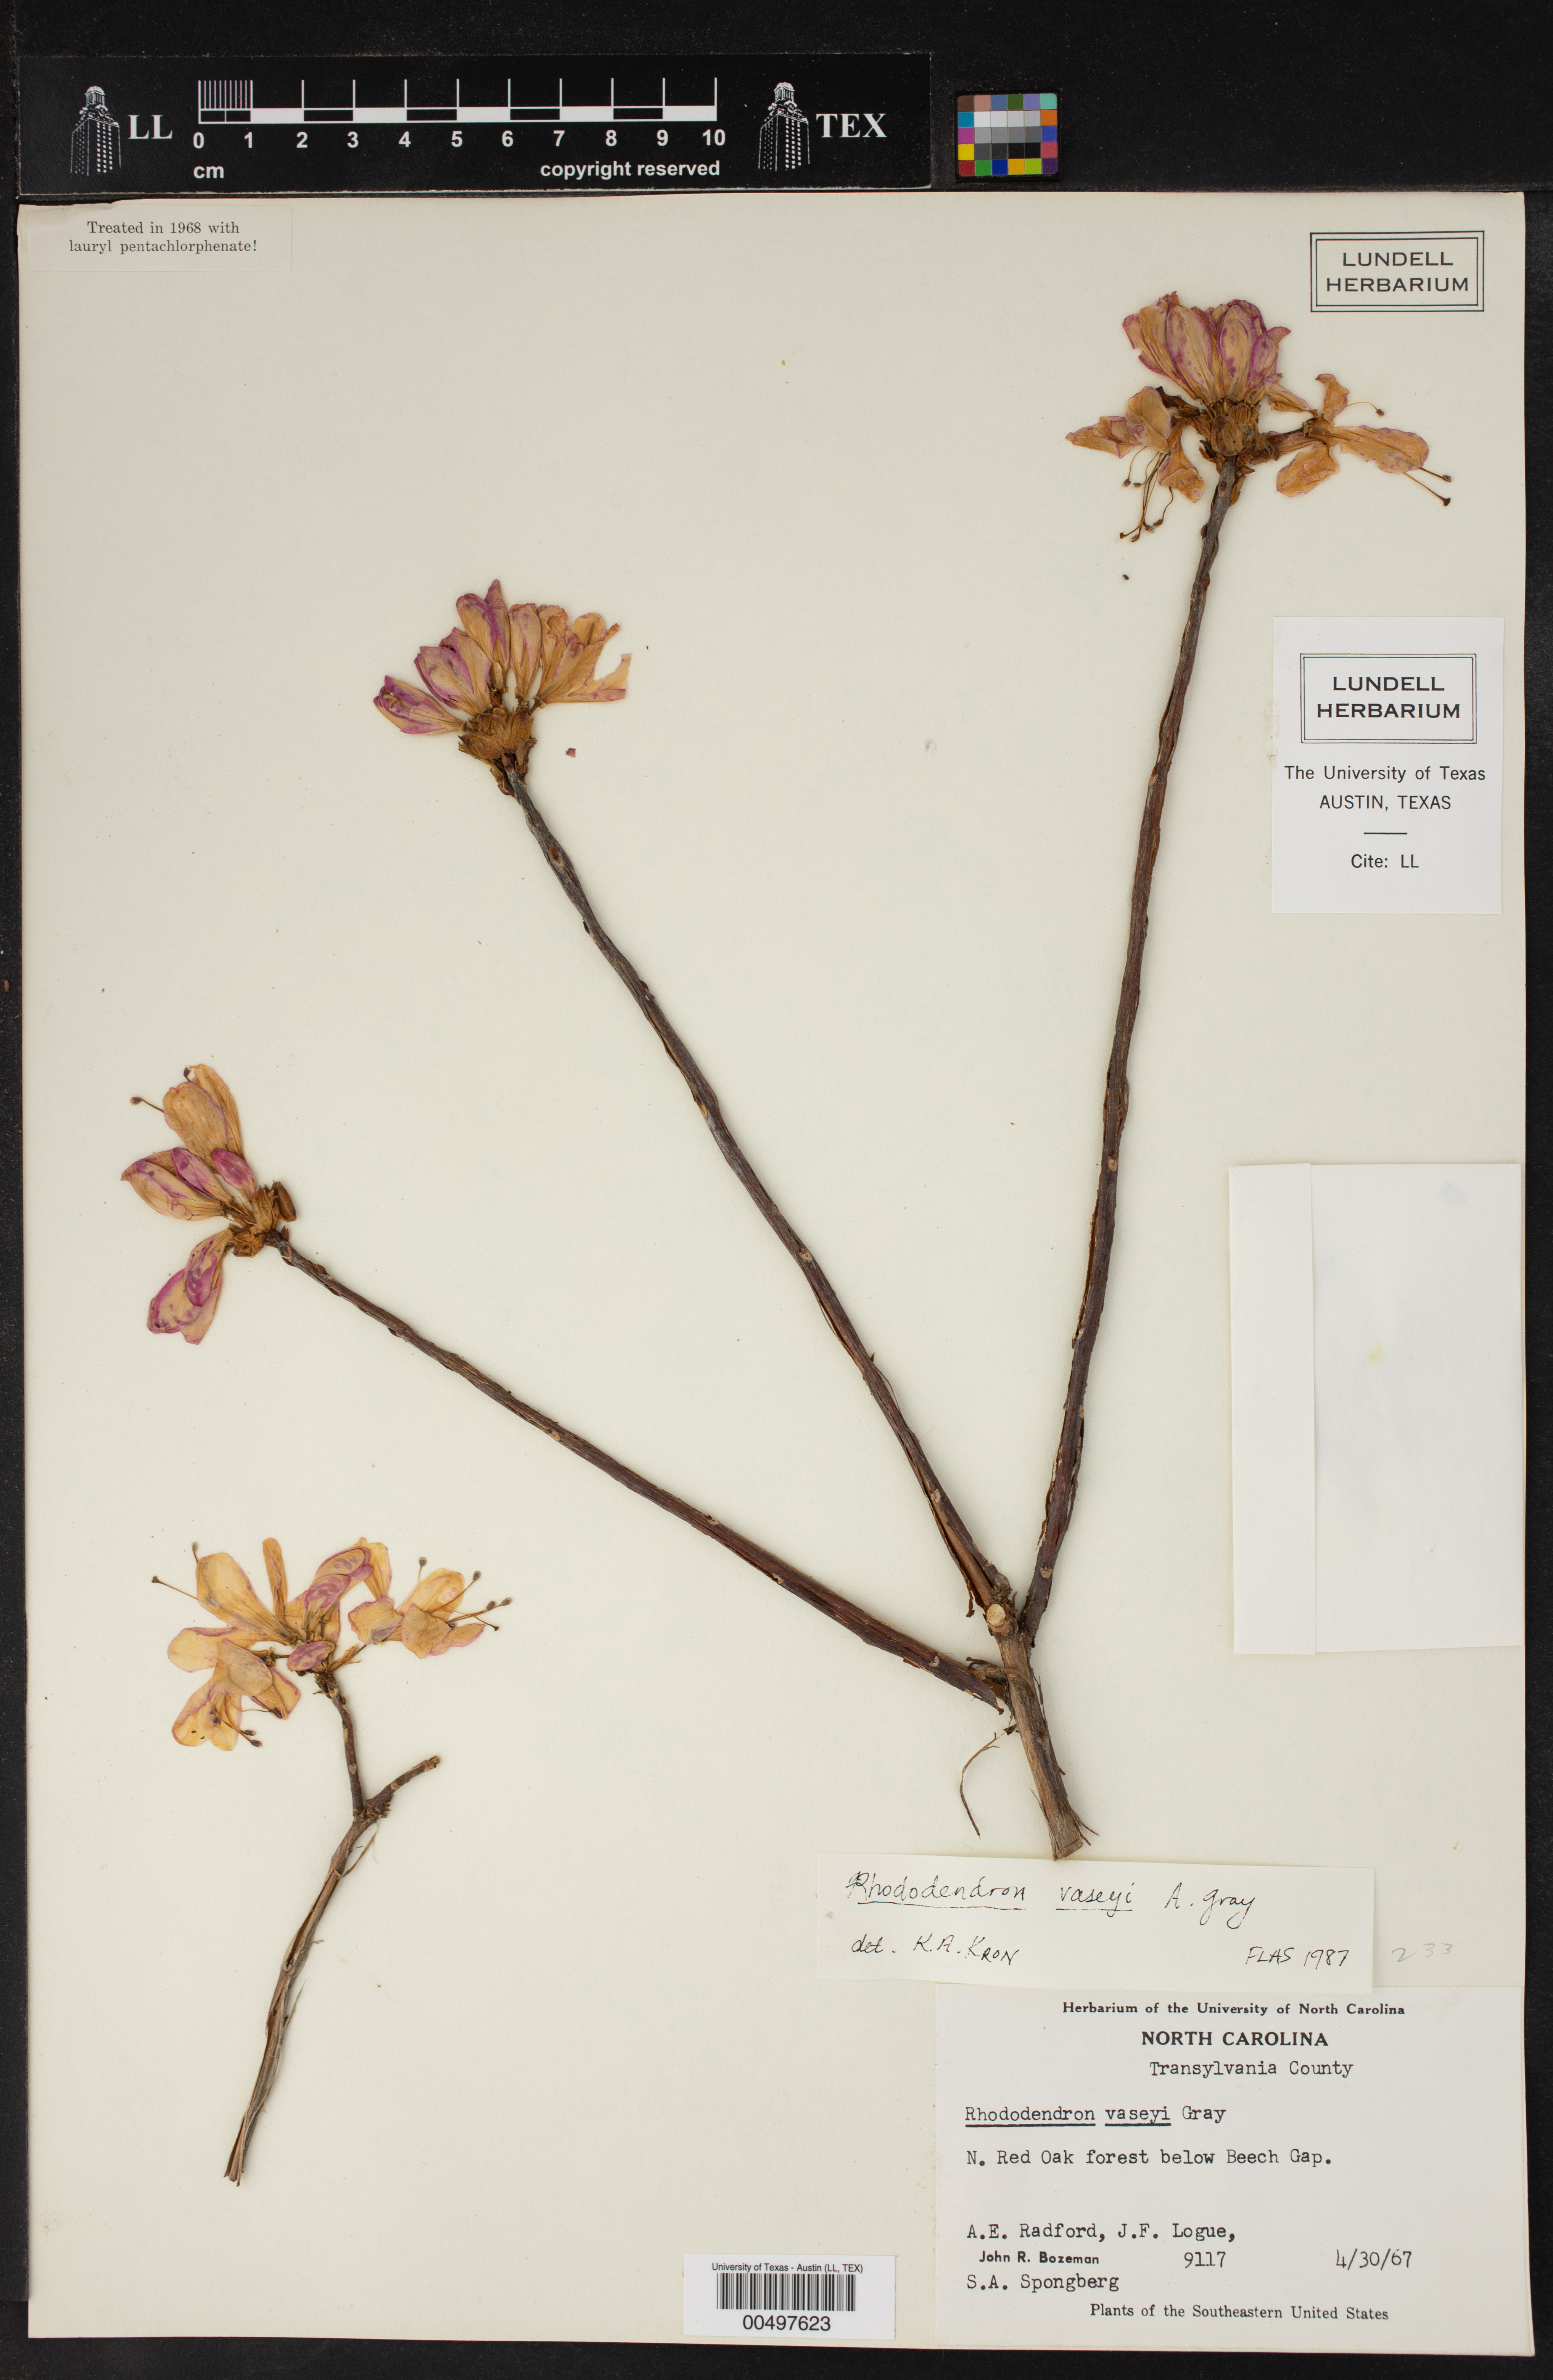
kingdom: Plantae
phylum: Tracheophyta
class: Magnoliopsida
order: Ericales
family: Ericaceae
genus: Rhododendron
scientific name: Rhododendron vaseyi
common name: Pink-shell azalea
